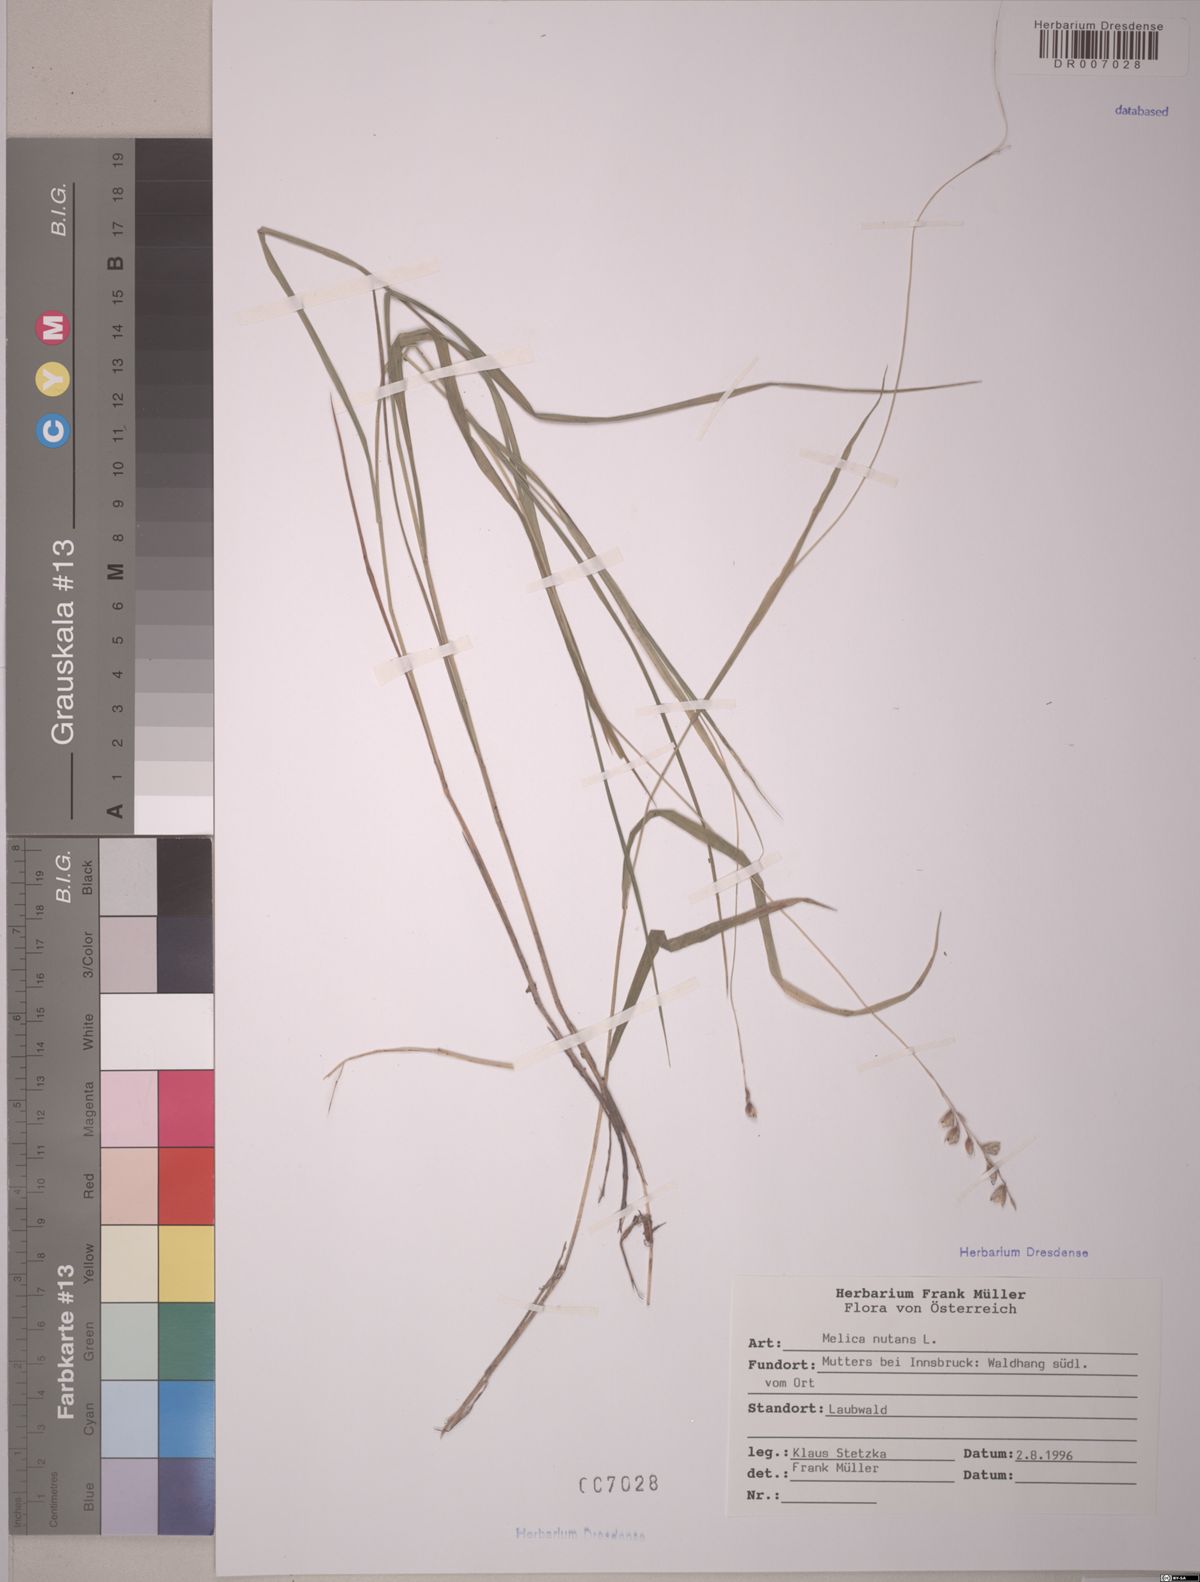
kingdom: Plantae
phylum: Tracheophyta
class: Liliopsida
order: Poales
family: Poaceae
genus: Melica
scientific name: Melica nutans
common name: Mountain melick
